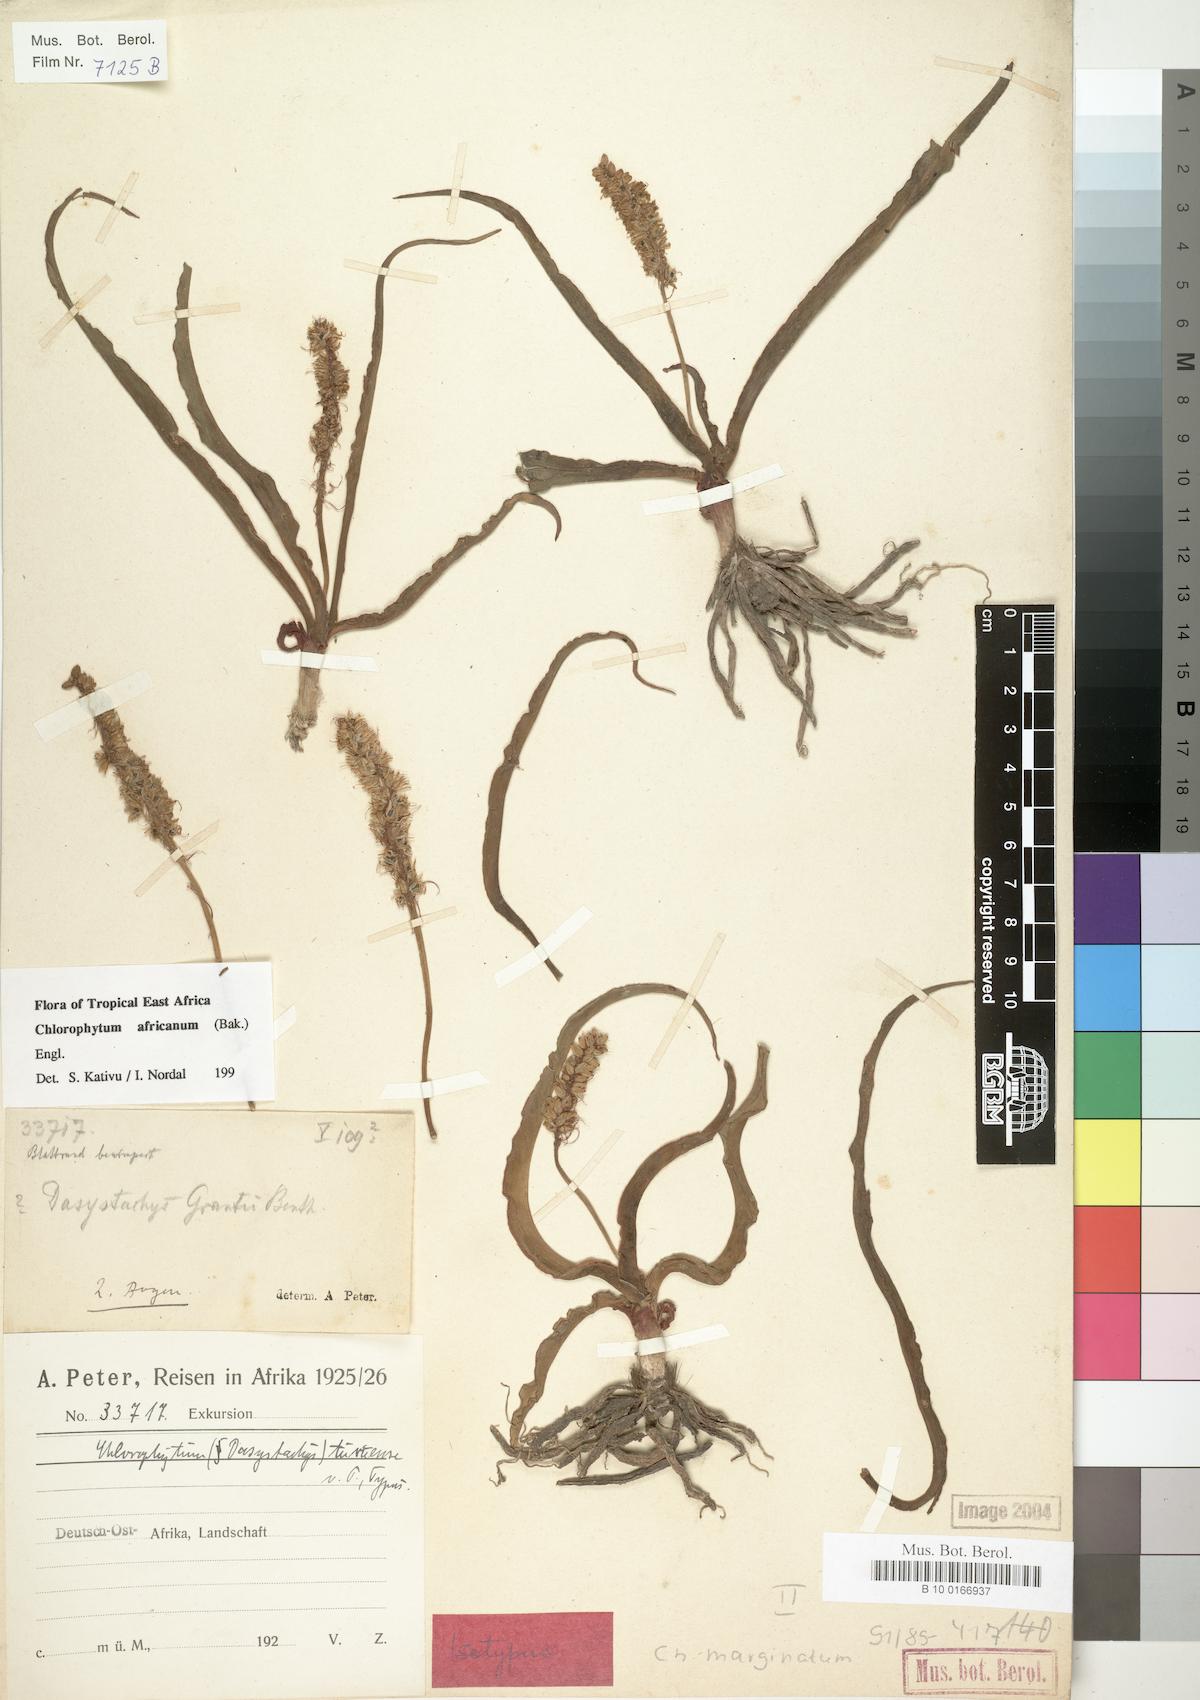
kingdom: Plantae
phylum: Tracheophyta
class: Liliopsida
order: Asparagales
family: Asparagaceae
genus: Chlorophytum
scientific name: Chlorophytum africanum
